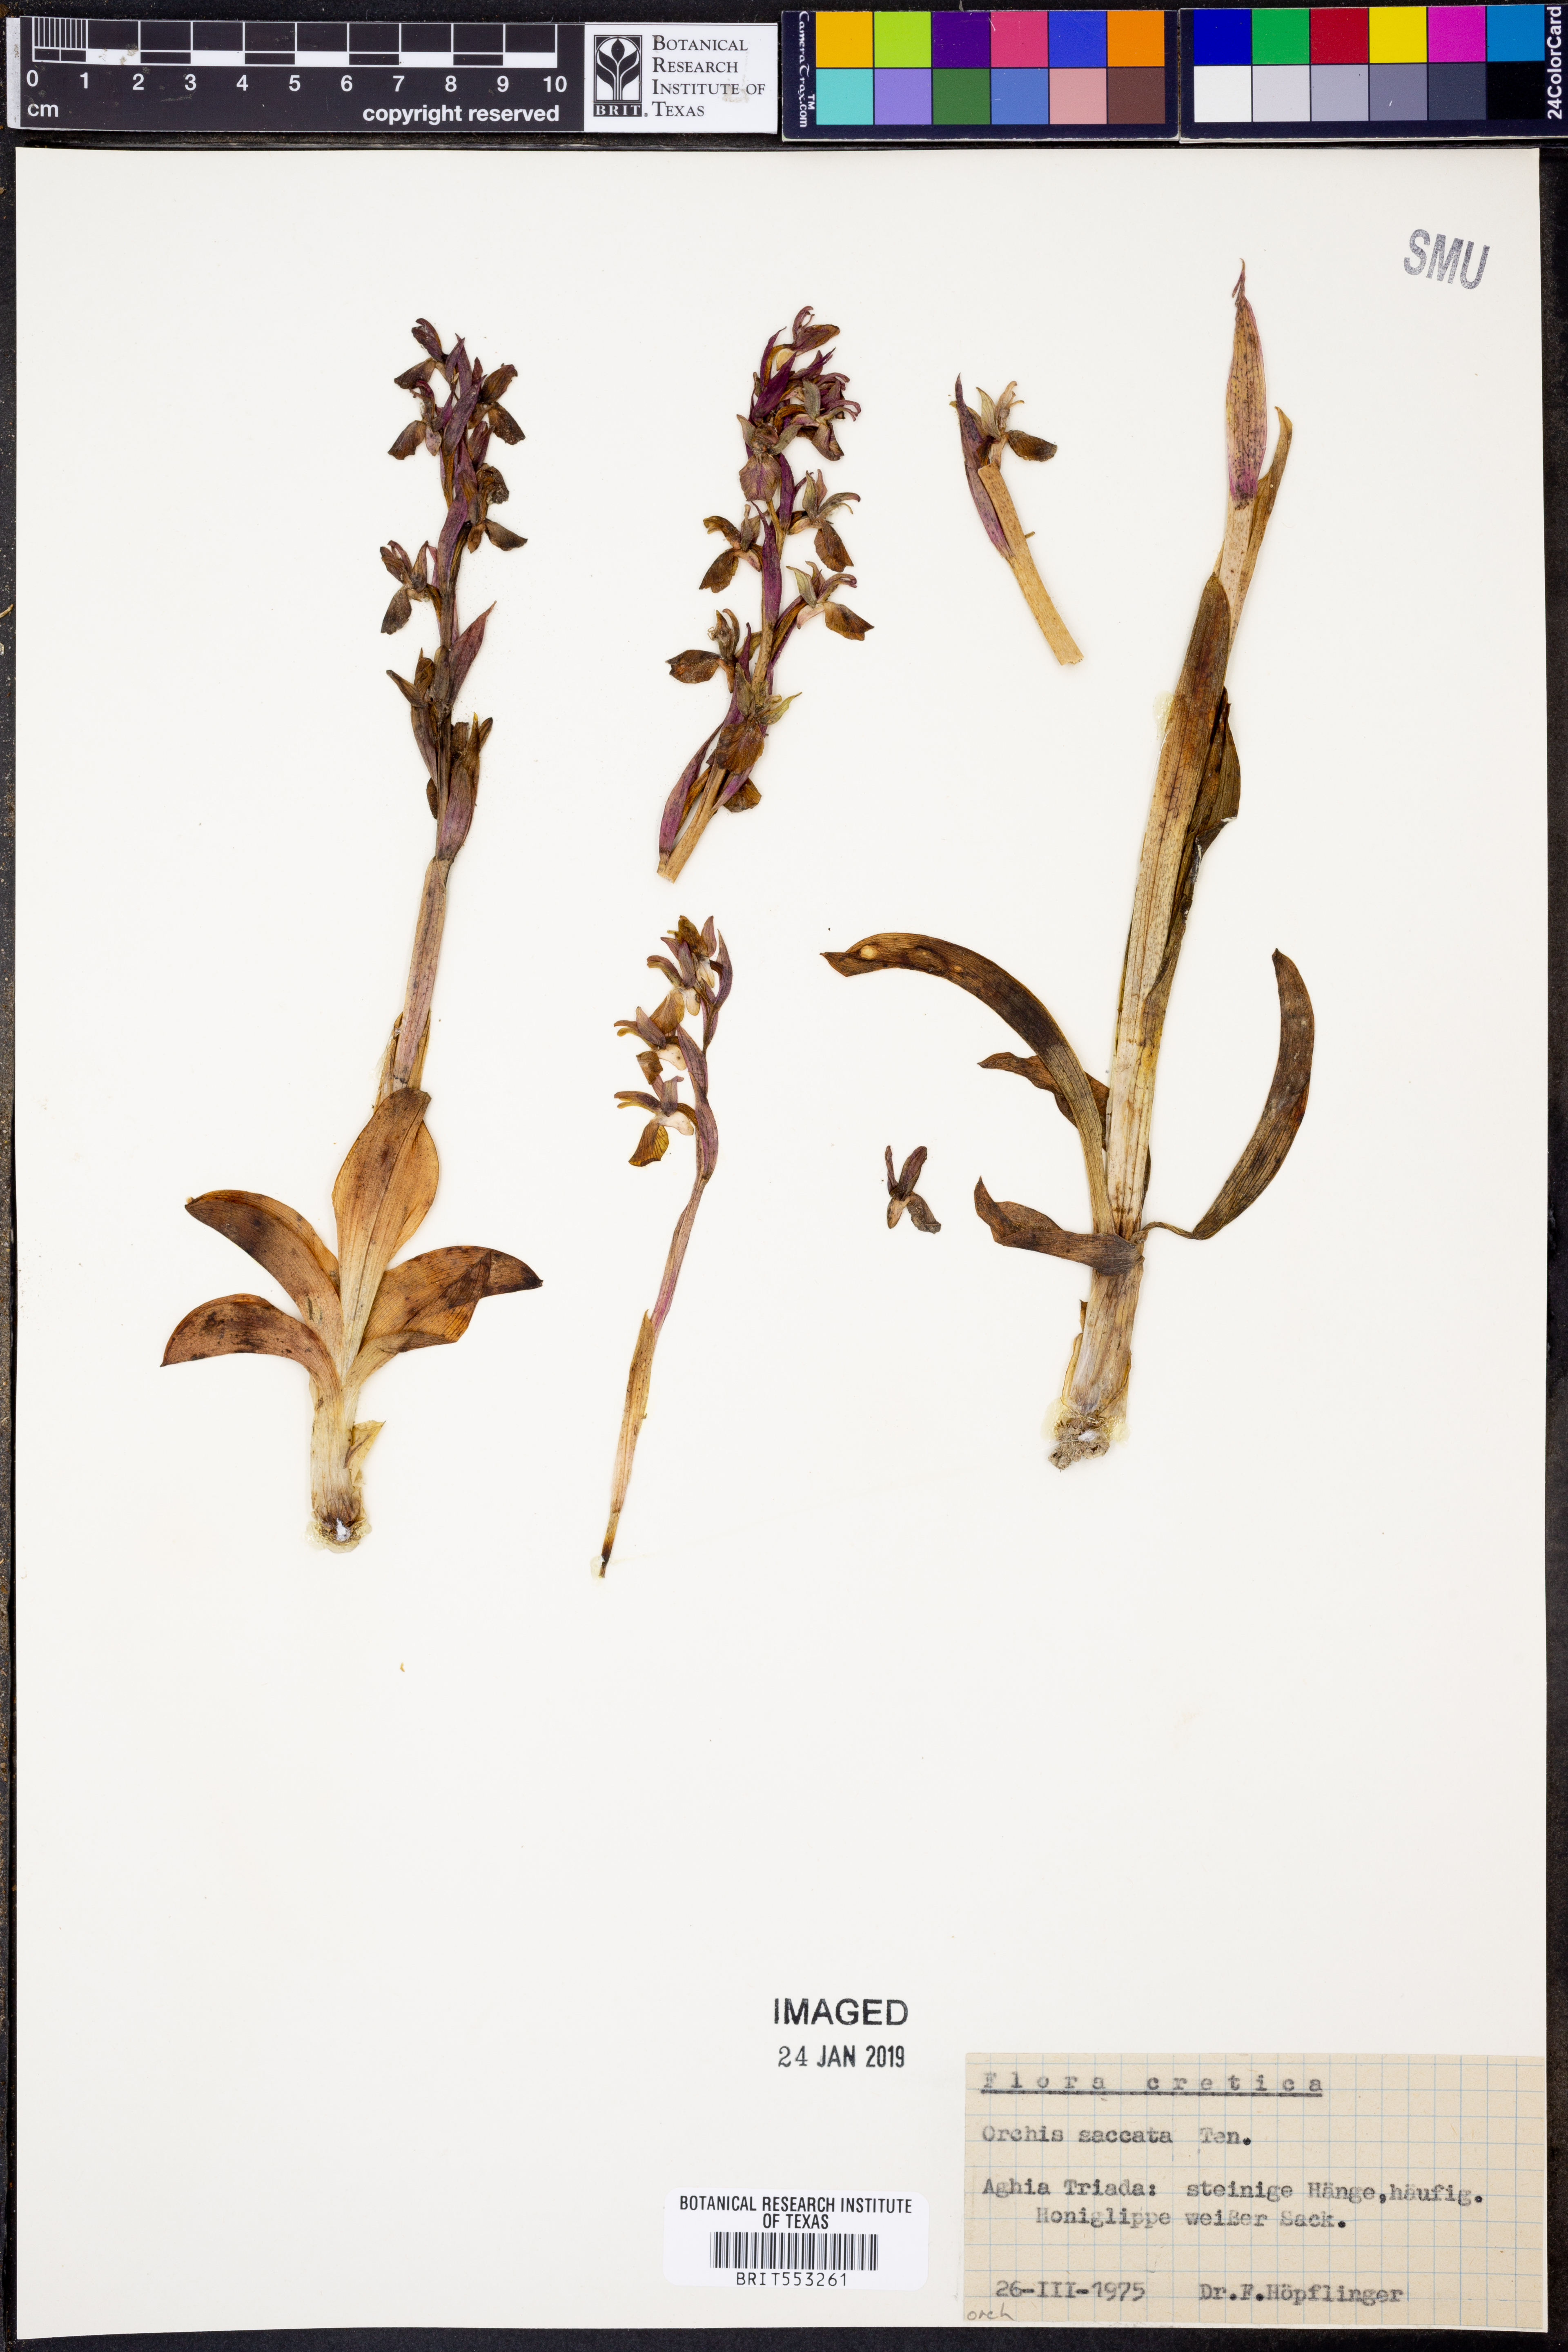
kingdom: Plantae
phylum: Tracheophyta
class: Liliopsida
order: Asparagales
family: Orchidaceae
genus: Dactylorhiza
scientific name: Dactylorhiza sambucina
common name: Elder-flowered orchid
